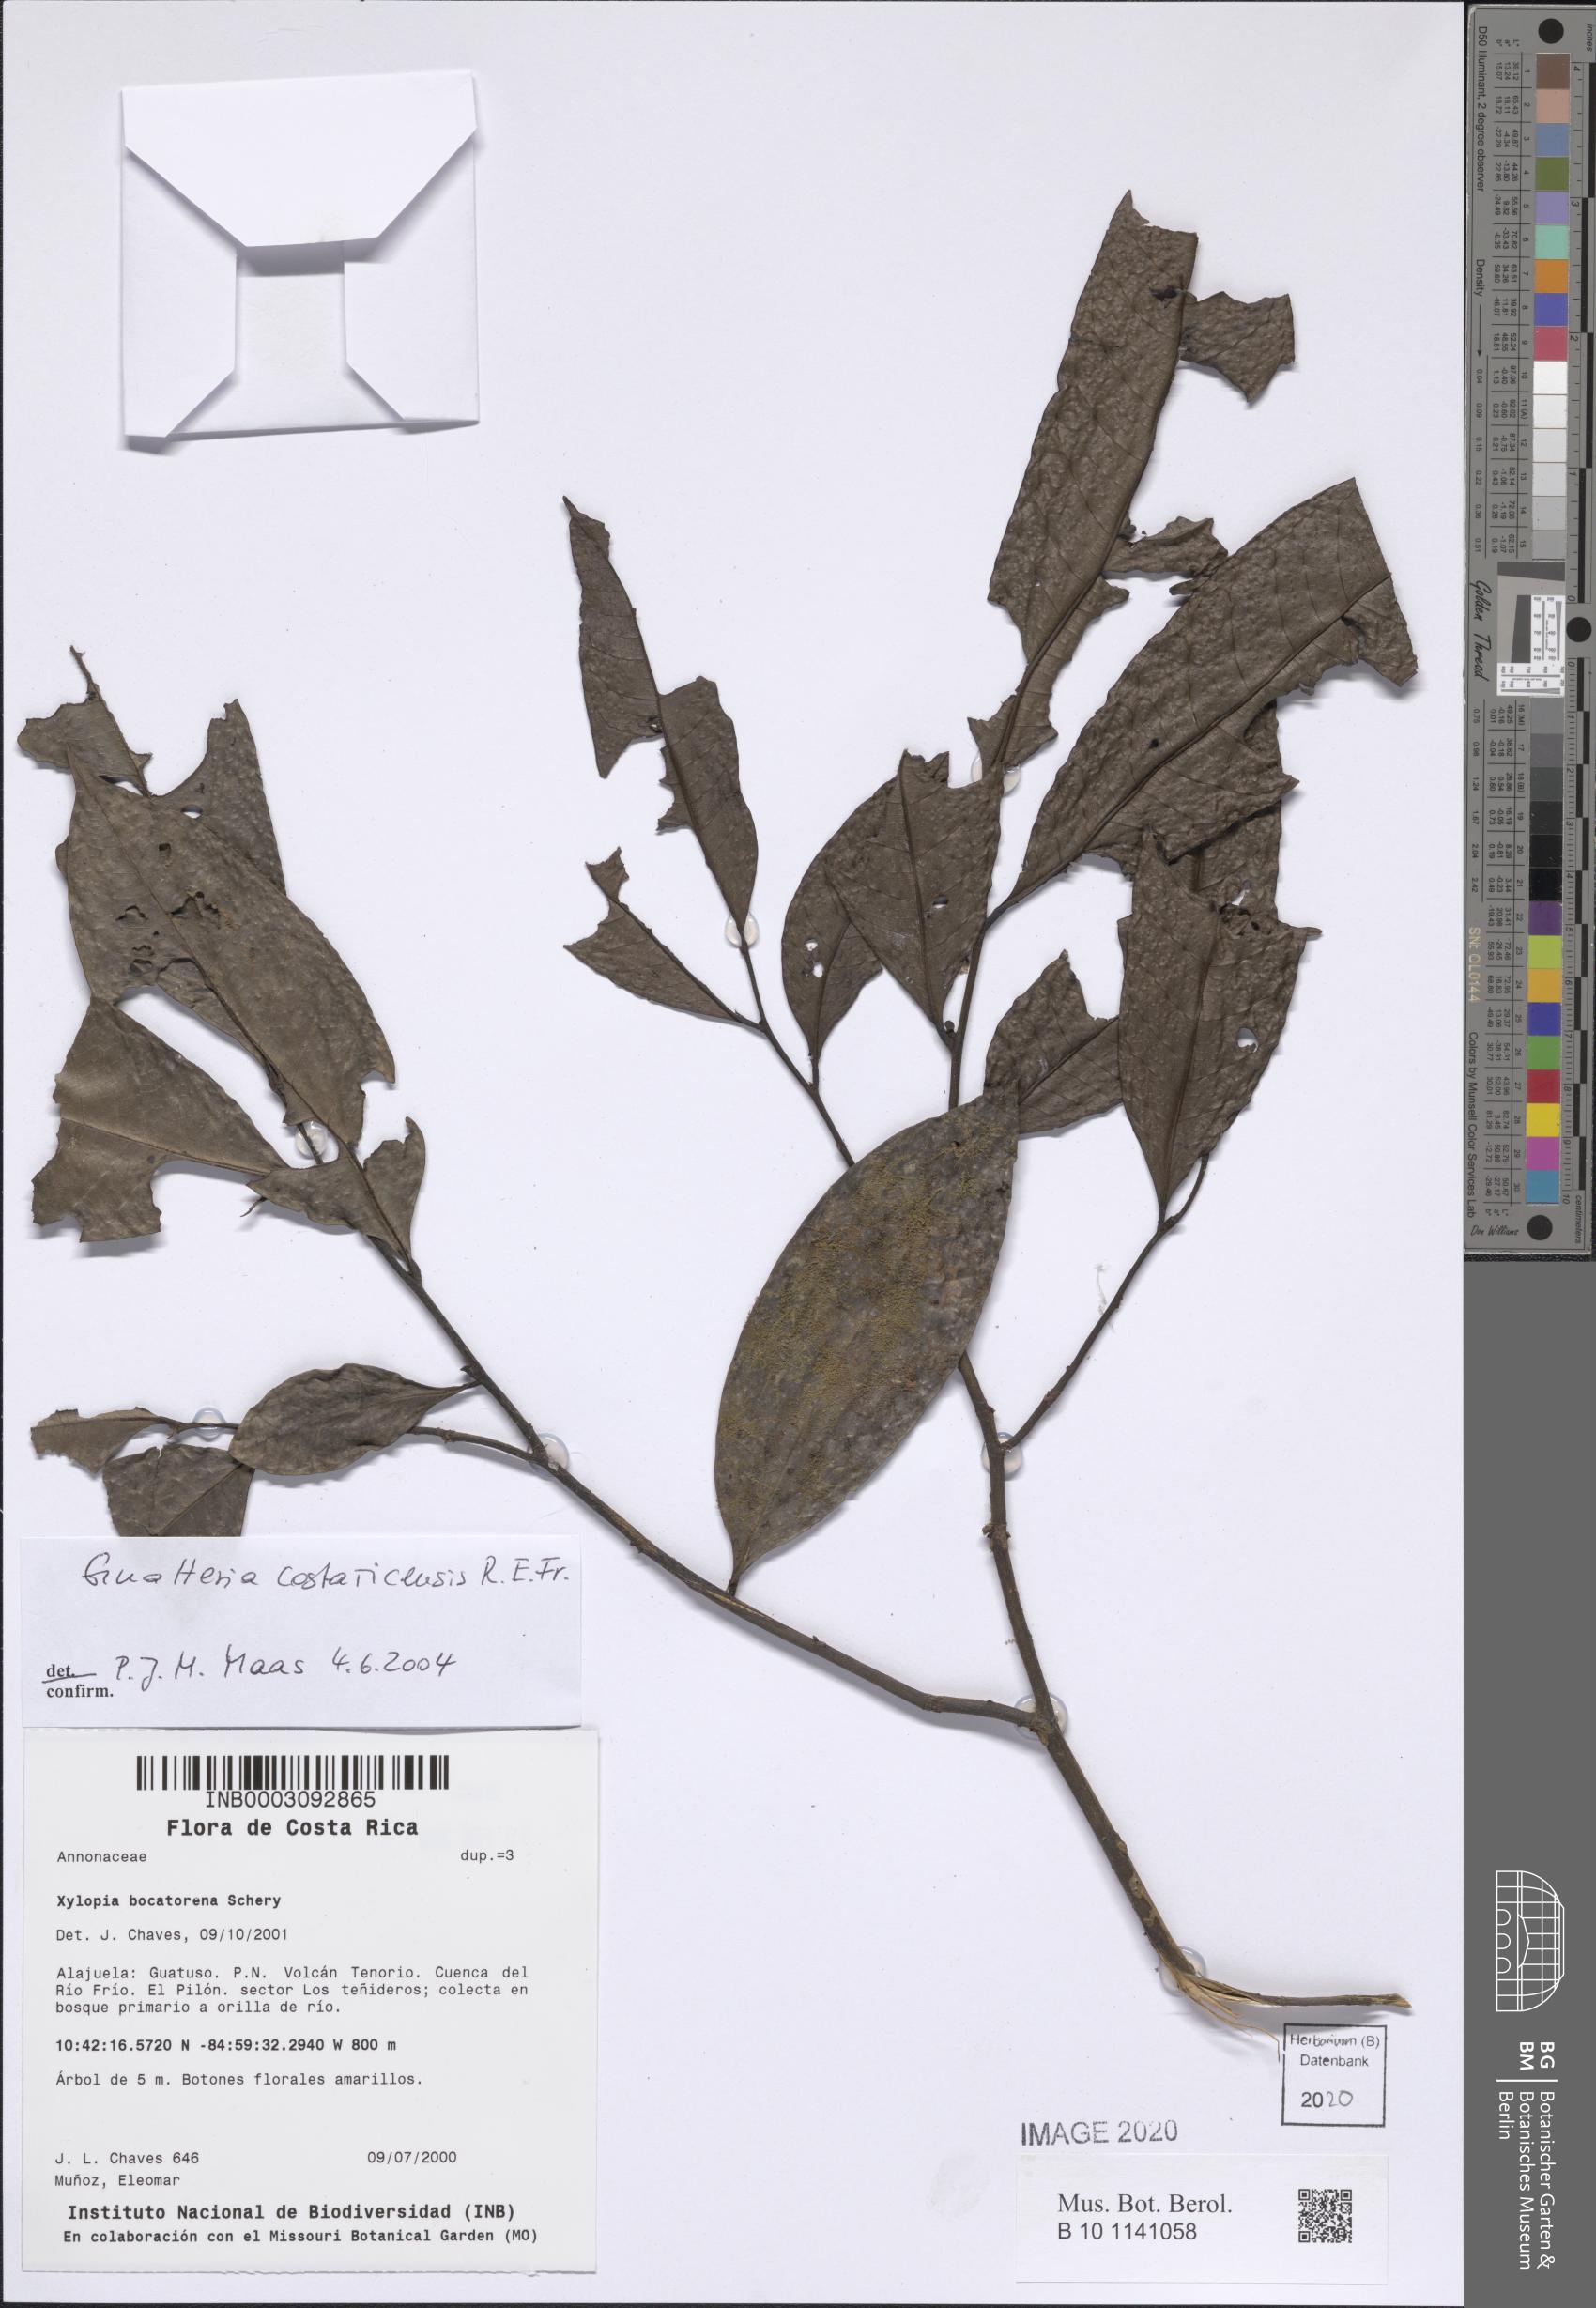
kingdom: Plantae
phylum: Tracheophyta
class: Magnoliopsida
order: Magnoliales
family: Annonaceae
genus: Guatteria
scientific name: Guatteria costaricensis
